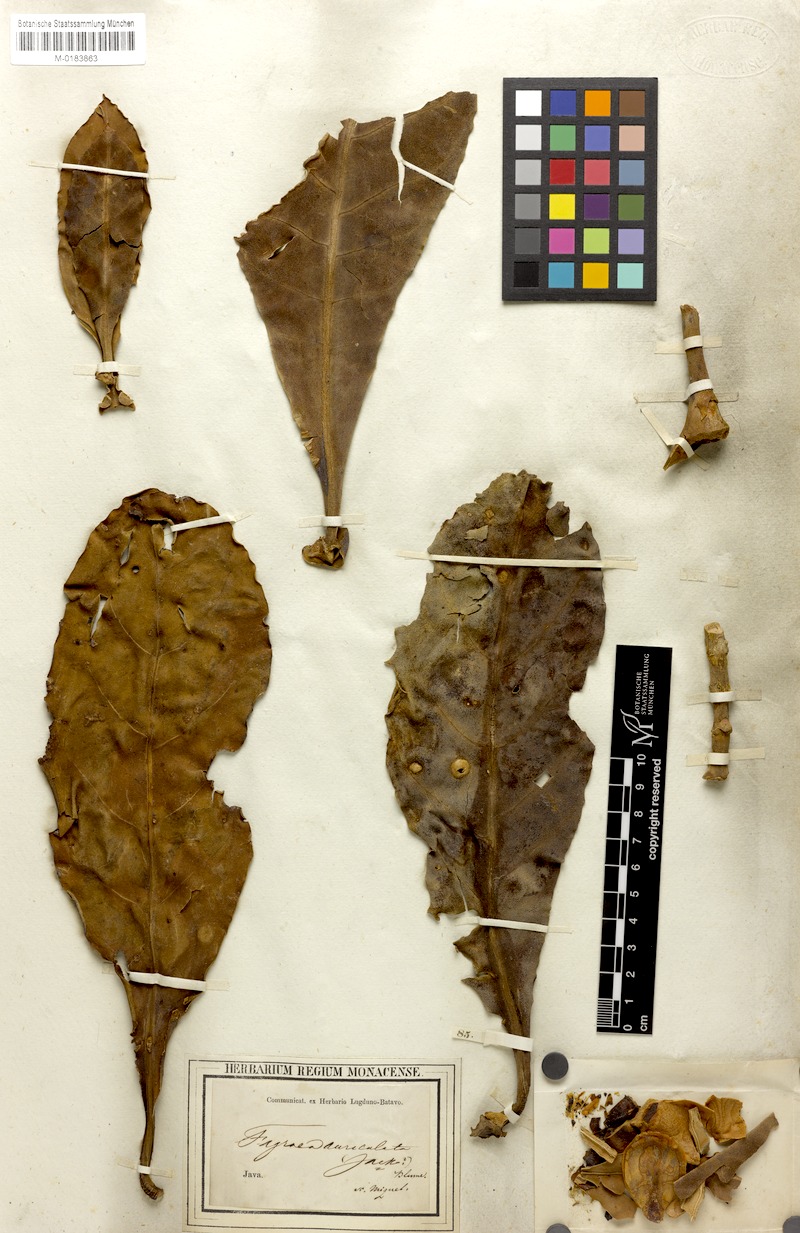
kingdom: Plantae
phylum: Tracheophyta
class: Magnoliopsida
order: Gentianales
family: Gentianaceae
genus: Fagraea
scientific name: Fagraea auriculata
